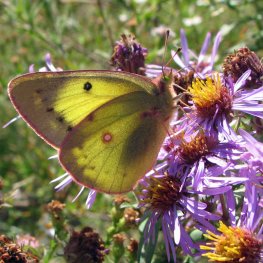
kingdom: Animalia
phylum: Arthropoda
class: Insecta
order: Lepidoptera
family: Pieridae
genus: Colias
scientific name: Colias eurytheme
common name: Orange Sulphur
